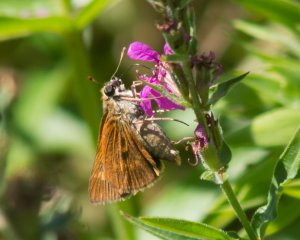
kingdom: Animalia
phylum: Arthropoda
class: Insecta
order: Lepidoptera
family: Hesperiidae
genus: Wallengrenia
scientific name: Wallengrenia otho
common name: Southern Broken-Dash
